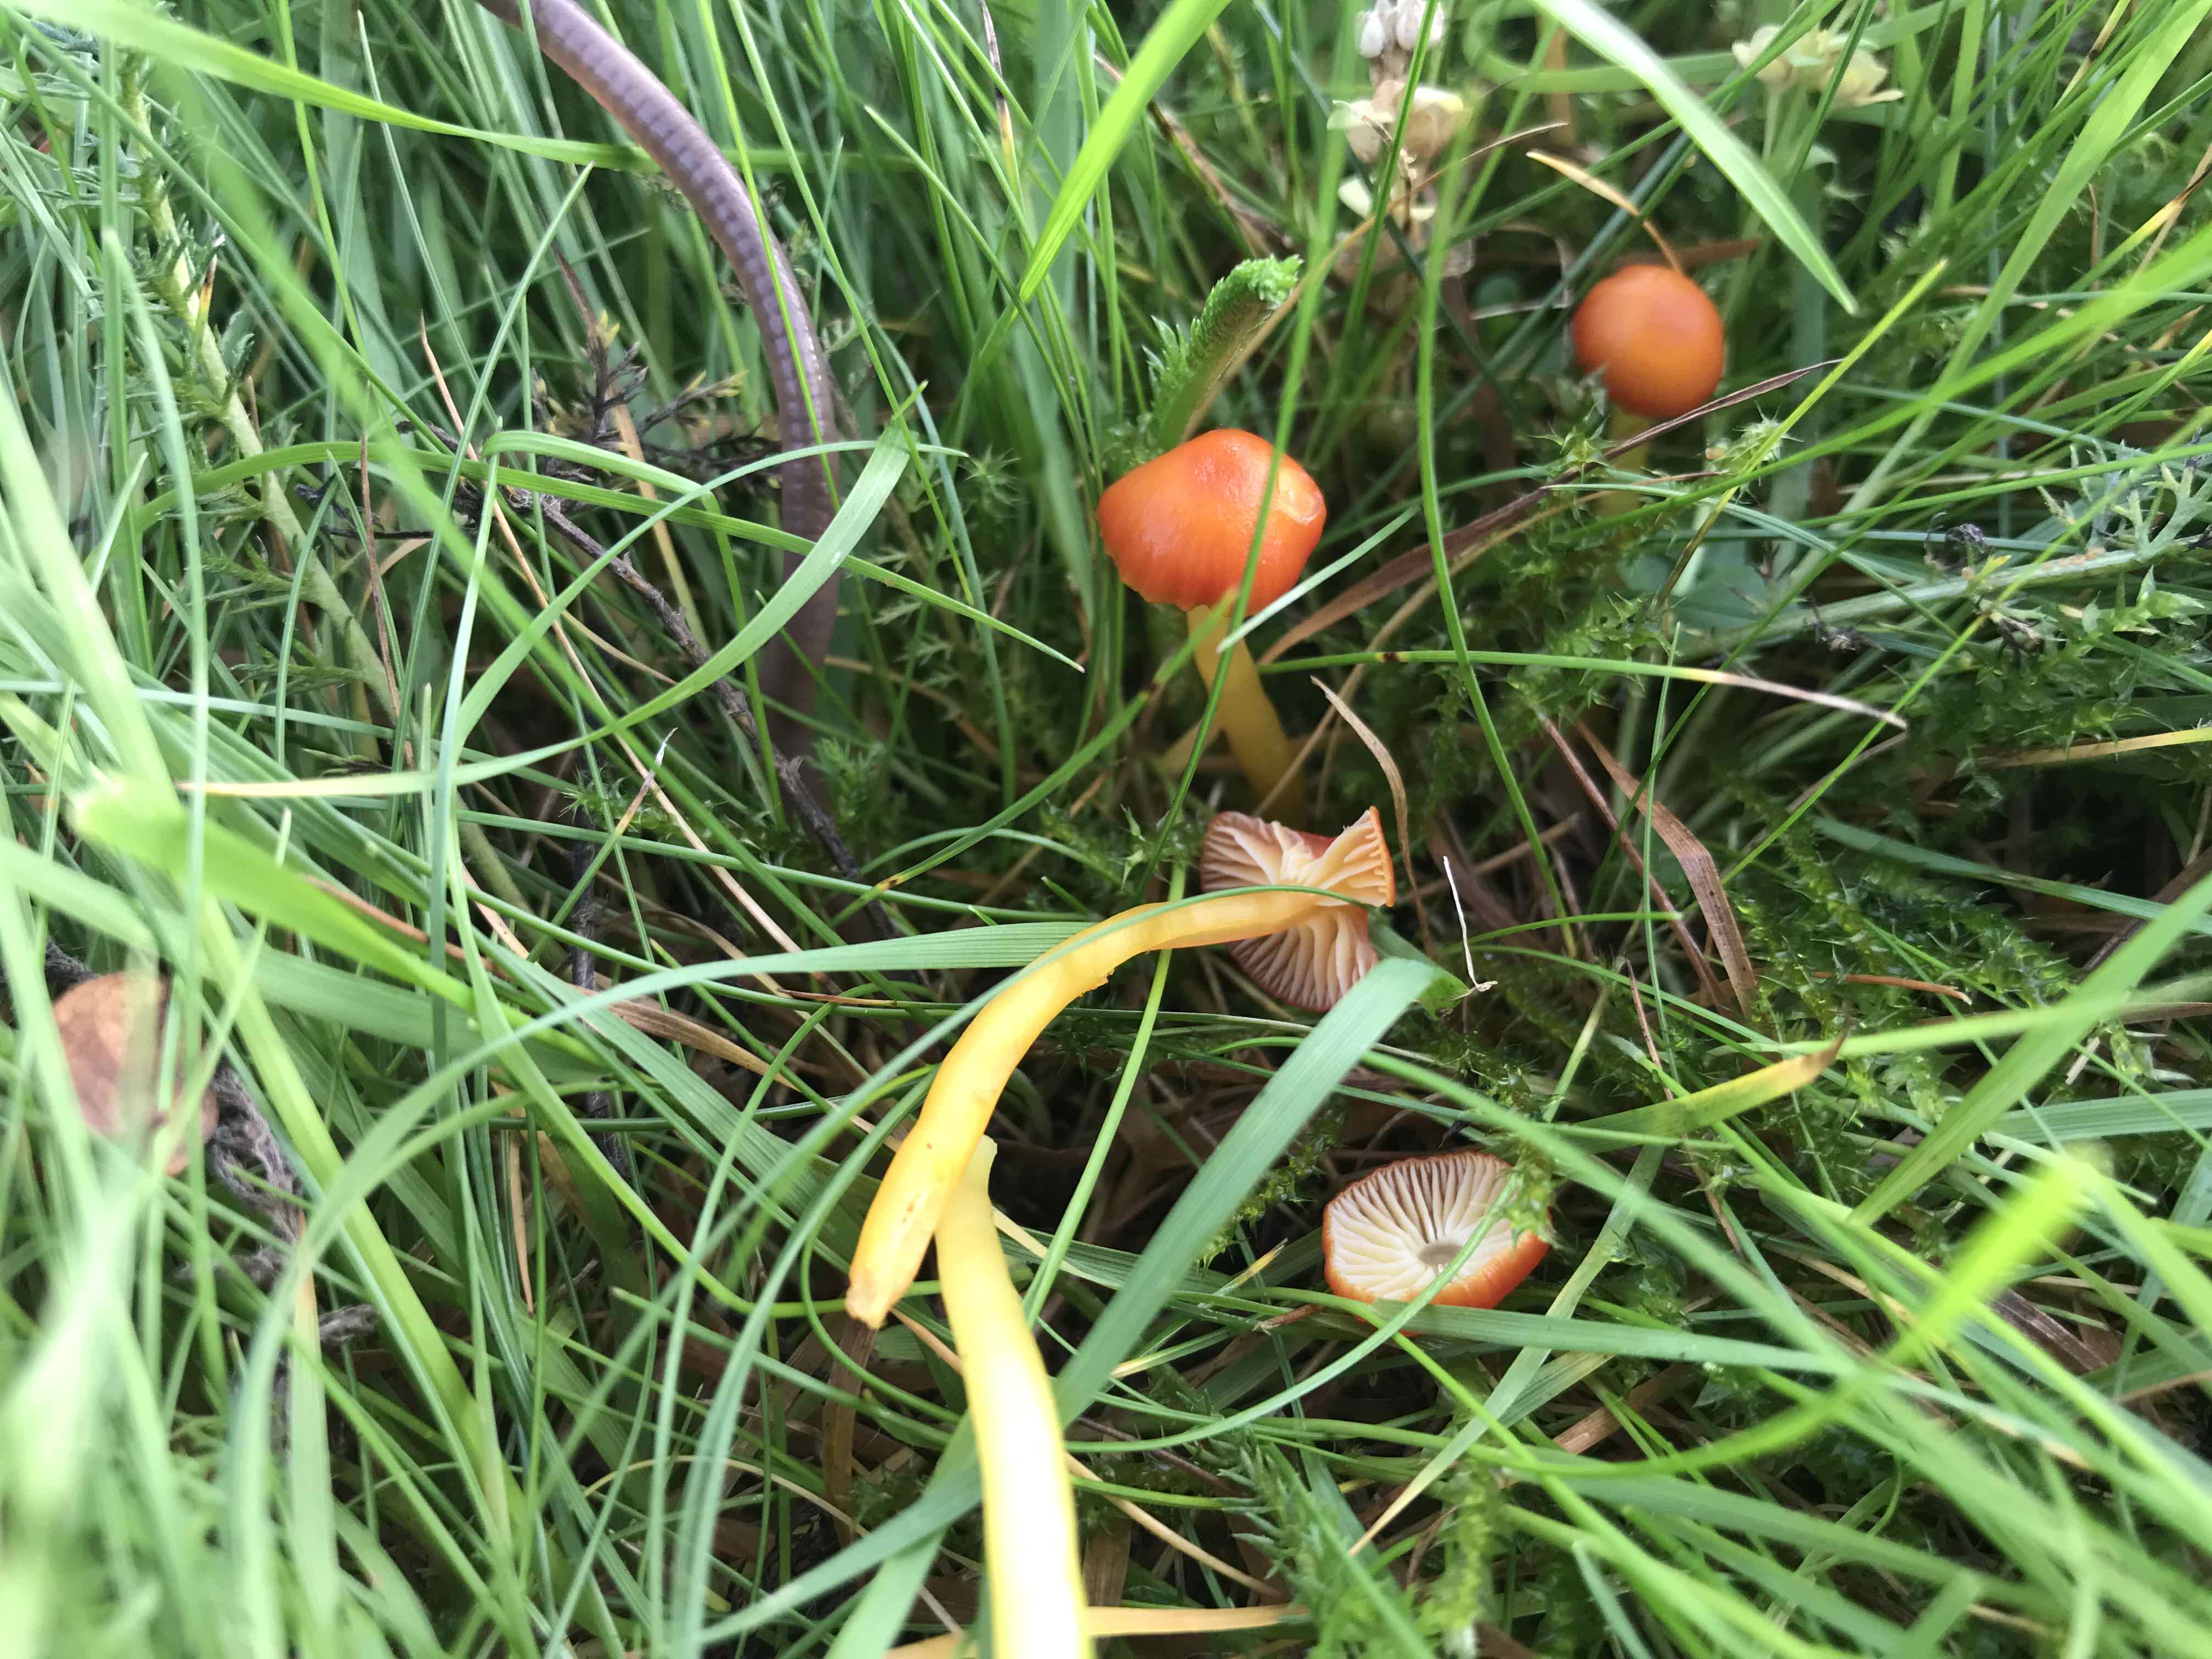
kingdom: Fungi
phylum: Basidiomycota
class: Agaricomycetes
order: Agaricales
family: Hygrophoraceae
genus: Hygrocybe
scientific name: Hygrocybe insipida
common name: liden vokshat
